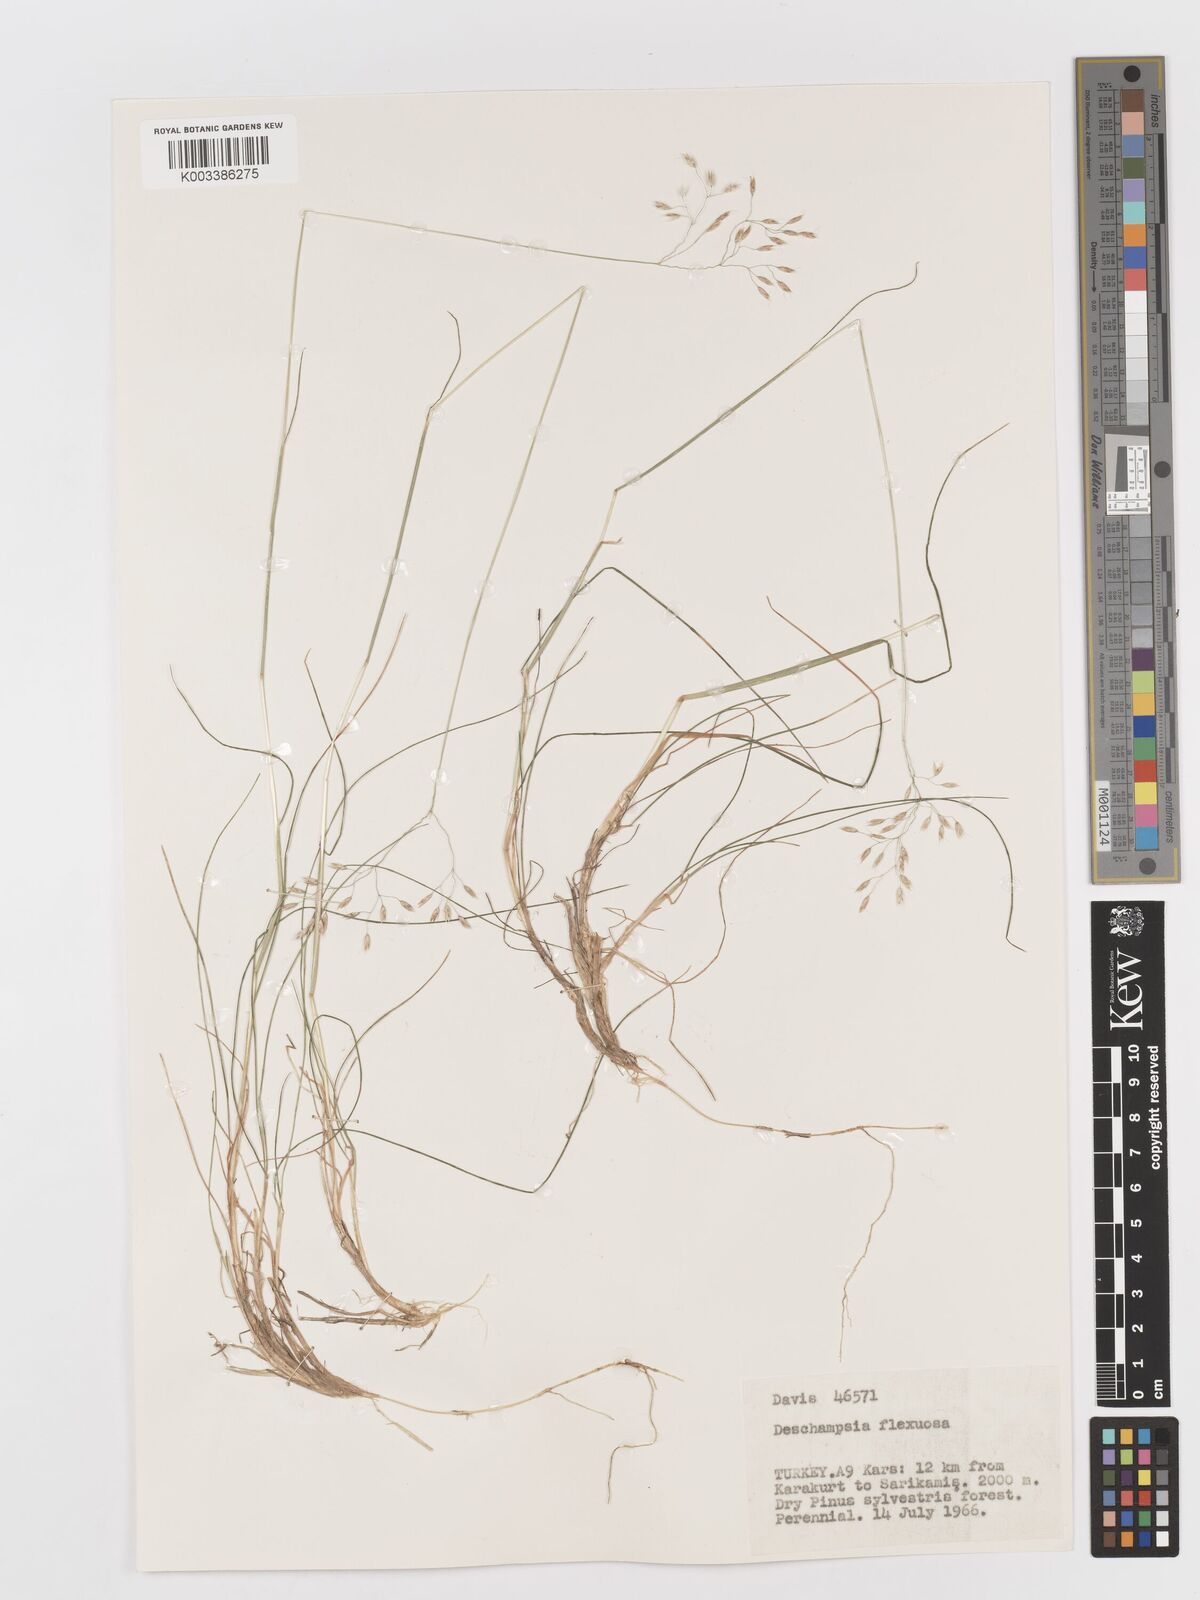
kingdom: Plantae
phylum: Tracheophyta
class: Liliopsida
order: Poales
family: Poaceae
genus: Avenella
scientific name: Avenella flexuosa
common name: Wavy hairgrass
